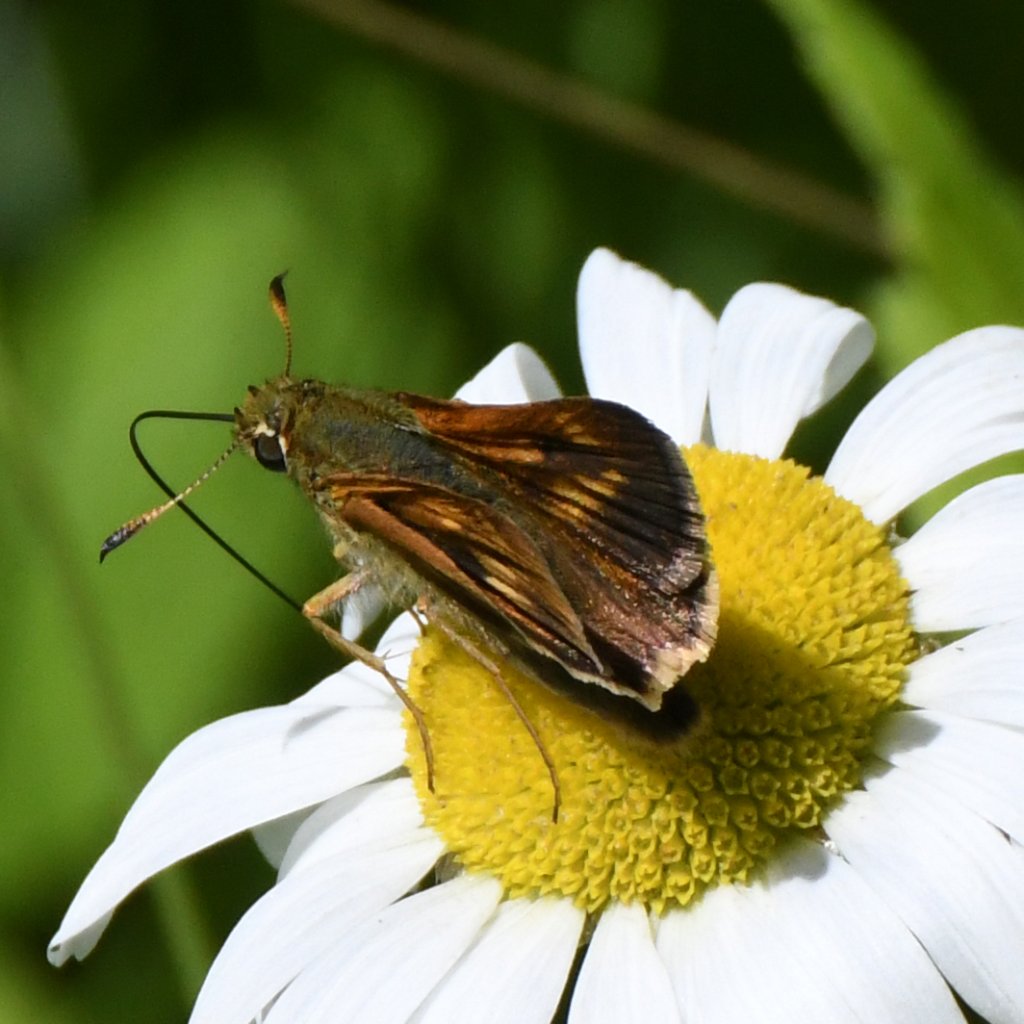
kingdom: Animalia
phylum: Arthropoda
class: Insecta
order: Lepidoptera
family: Hesperiidae
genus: Polites
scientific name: Polites
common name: Long Dash Skipper
